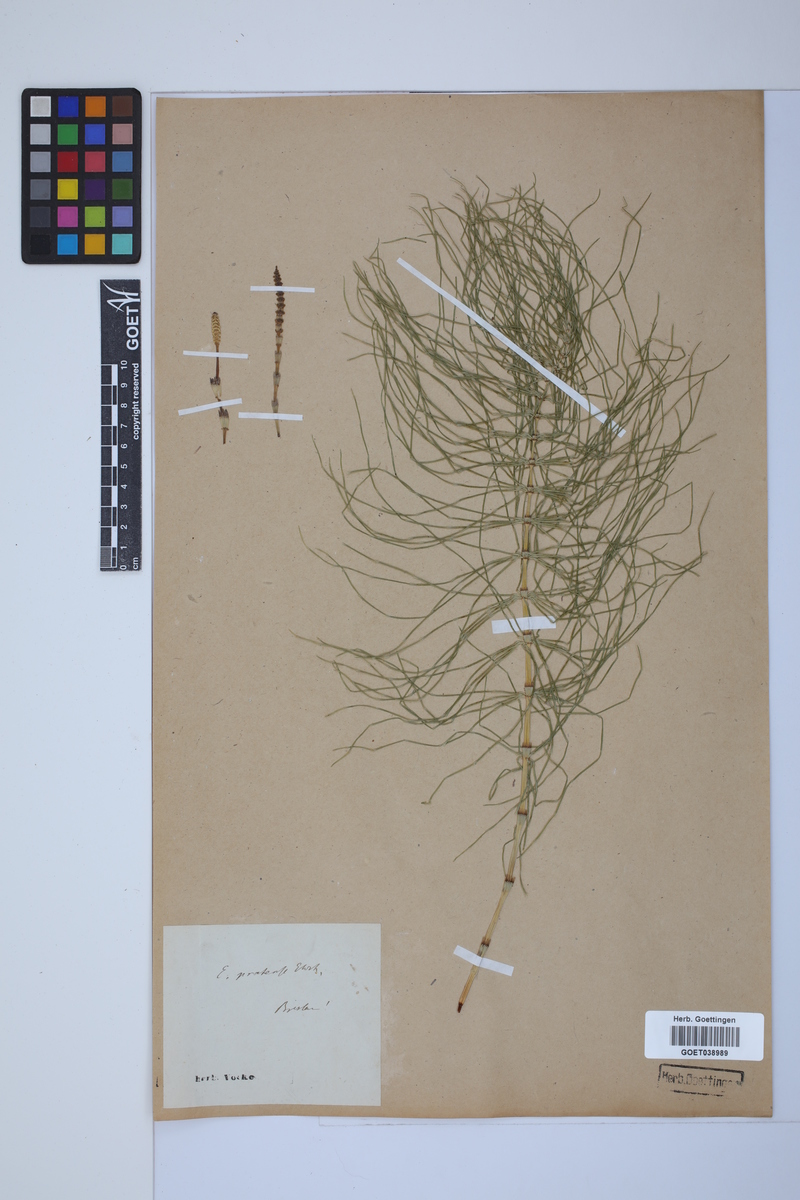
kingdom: Plantae
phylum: Tracheophyta
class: Polypodiopsida
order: Equisetales
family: Equisetaceae
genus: Equisetum
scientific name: Equisetum pratense
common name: Meadow horsetail
